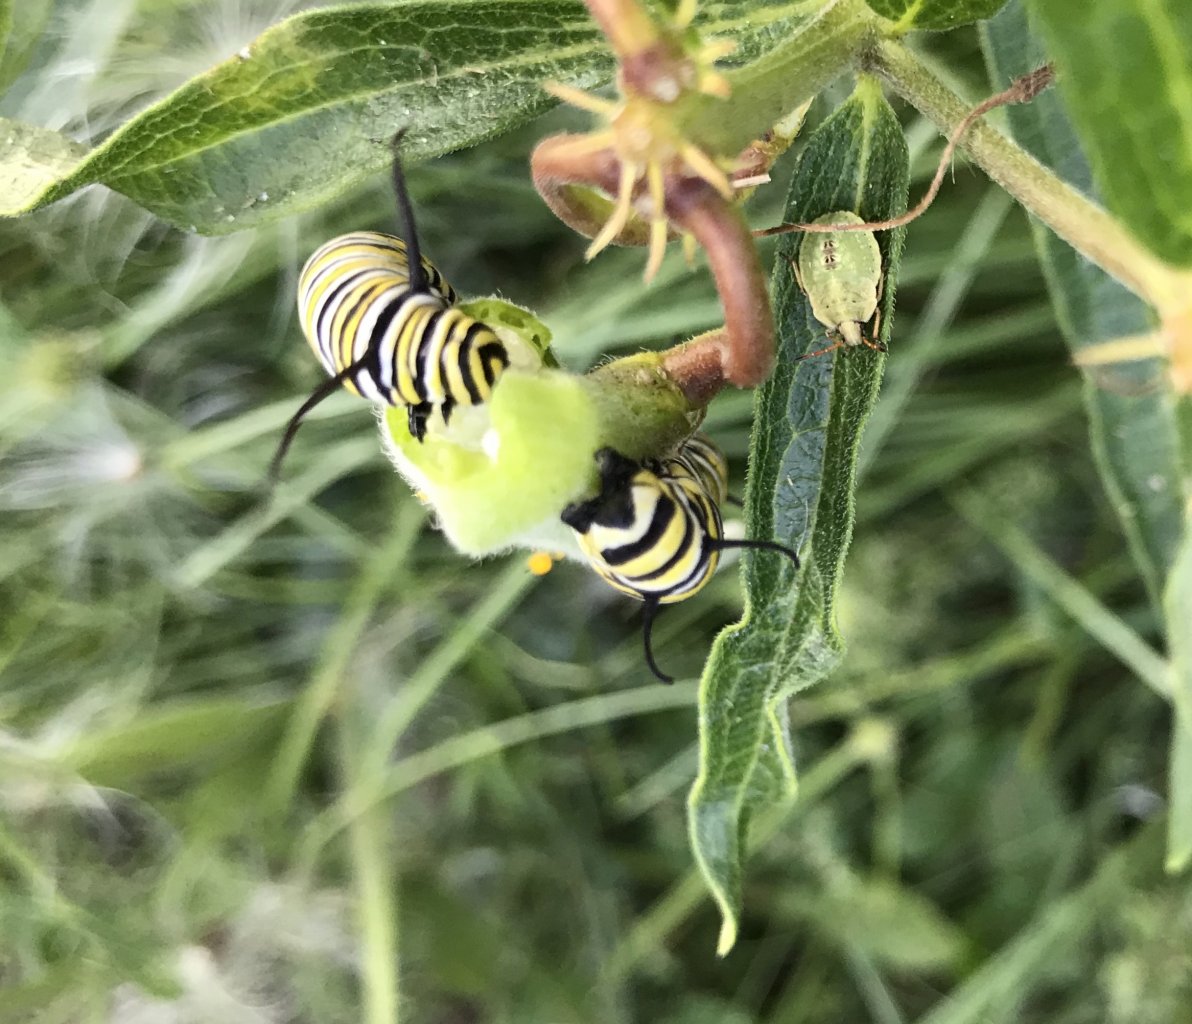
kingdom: Animalia
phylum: Arthropoda
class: Insecta
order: Lepidoptera
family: Nymphalidae
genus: Danaus
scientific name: Danaus plexippus
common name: Monarch
